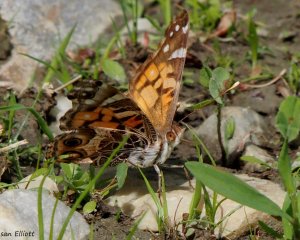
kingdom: Animalia
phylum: Arthropoda
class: Insecta
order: Lepidoptera
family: Nymphalidae
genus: Vanessa
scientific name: Vanessa virginiensis
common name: American Lady
